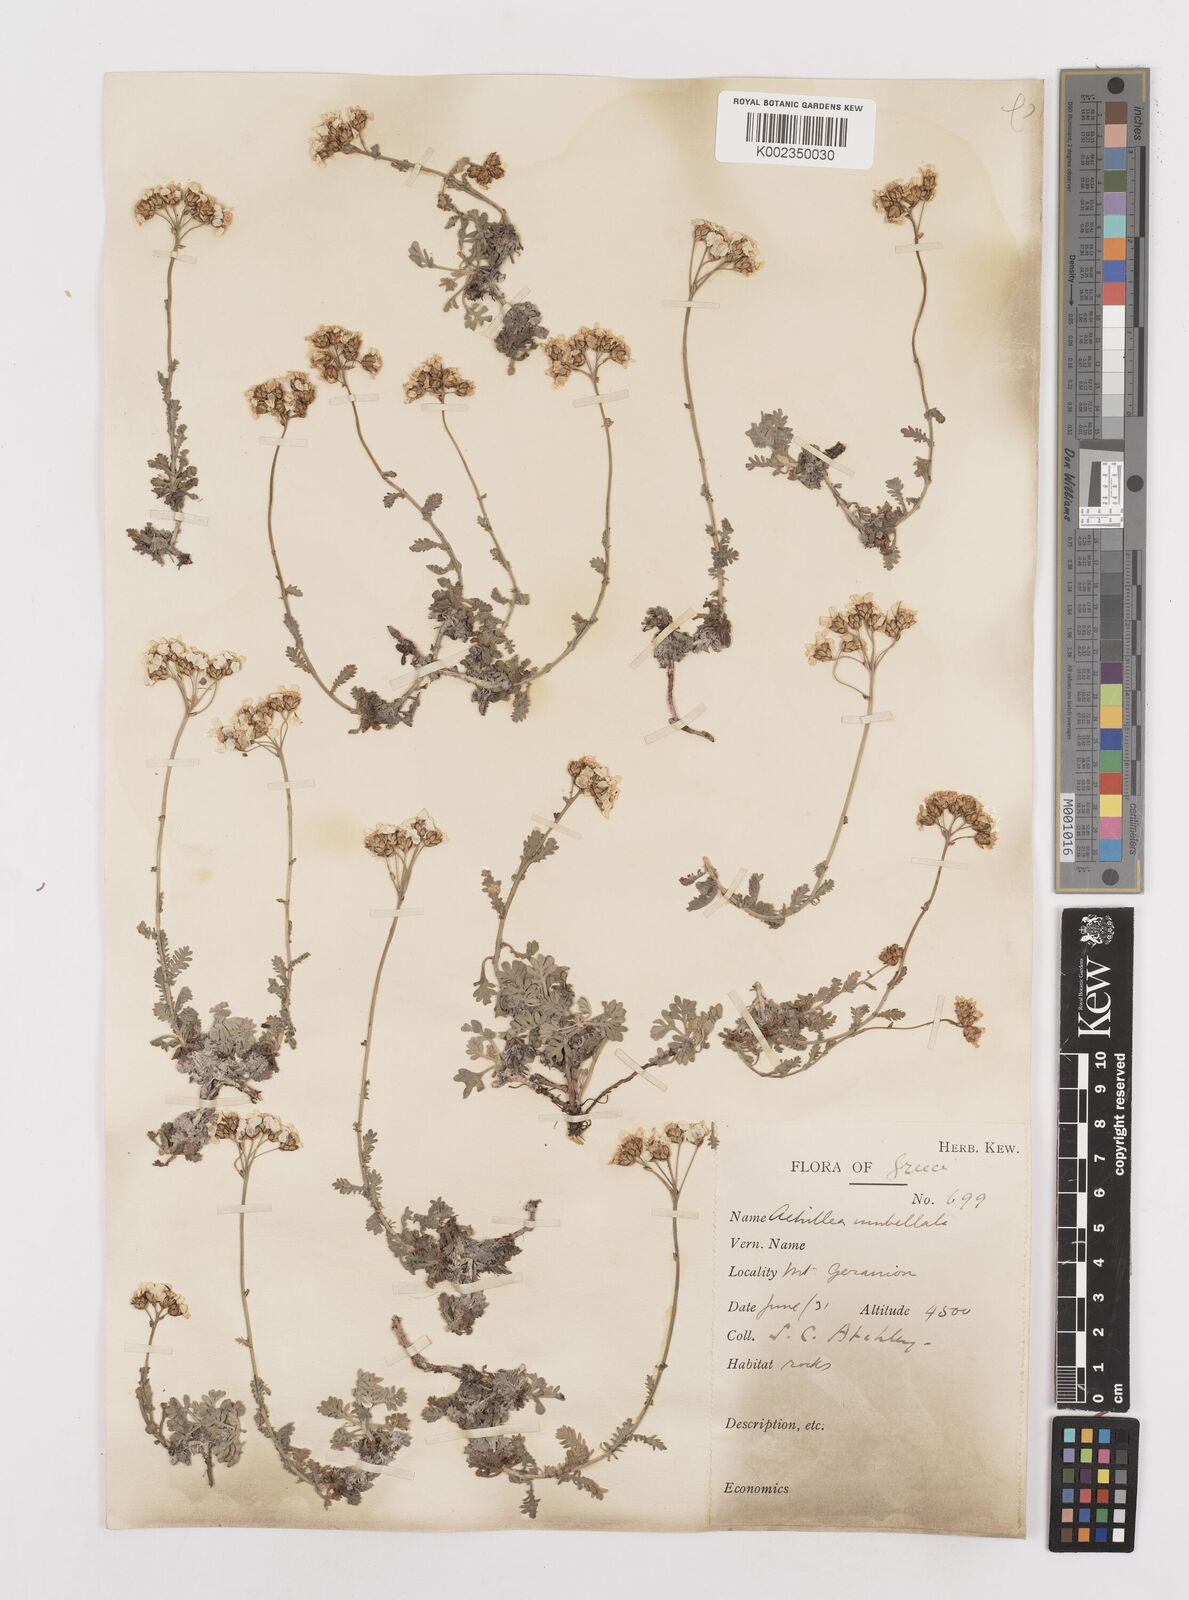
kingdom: Plantae
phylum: Tracheophyta
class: Magnoliopsida
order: Asterales
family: Asteraceae
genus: Achillea
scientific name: Achillea umbellata
